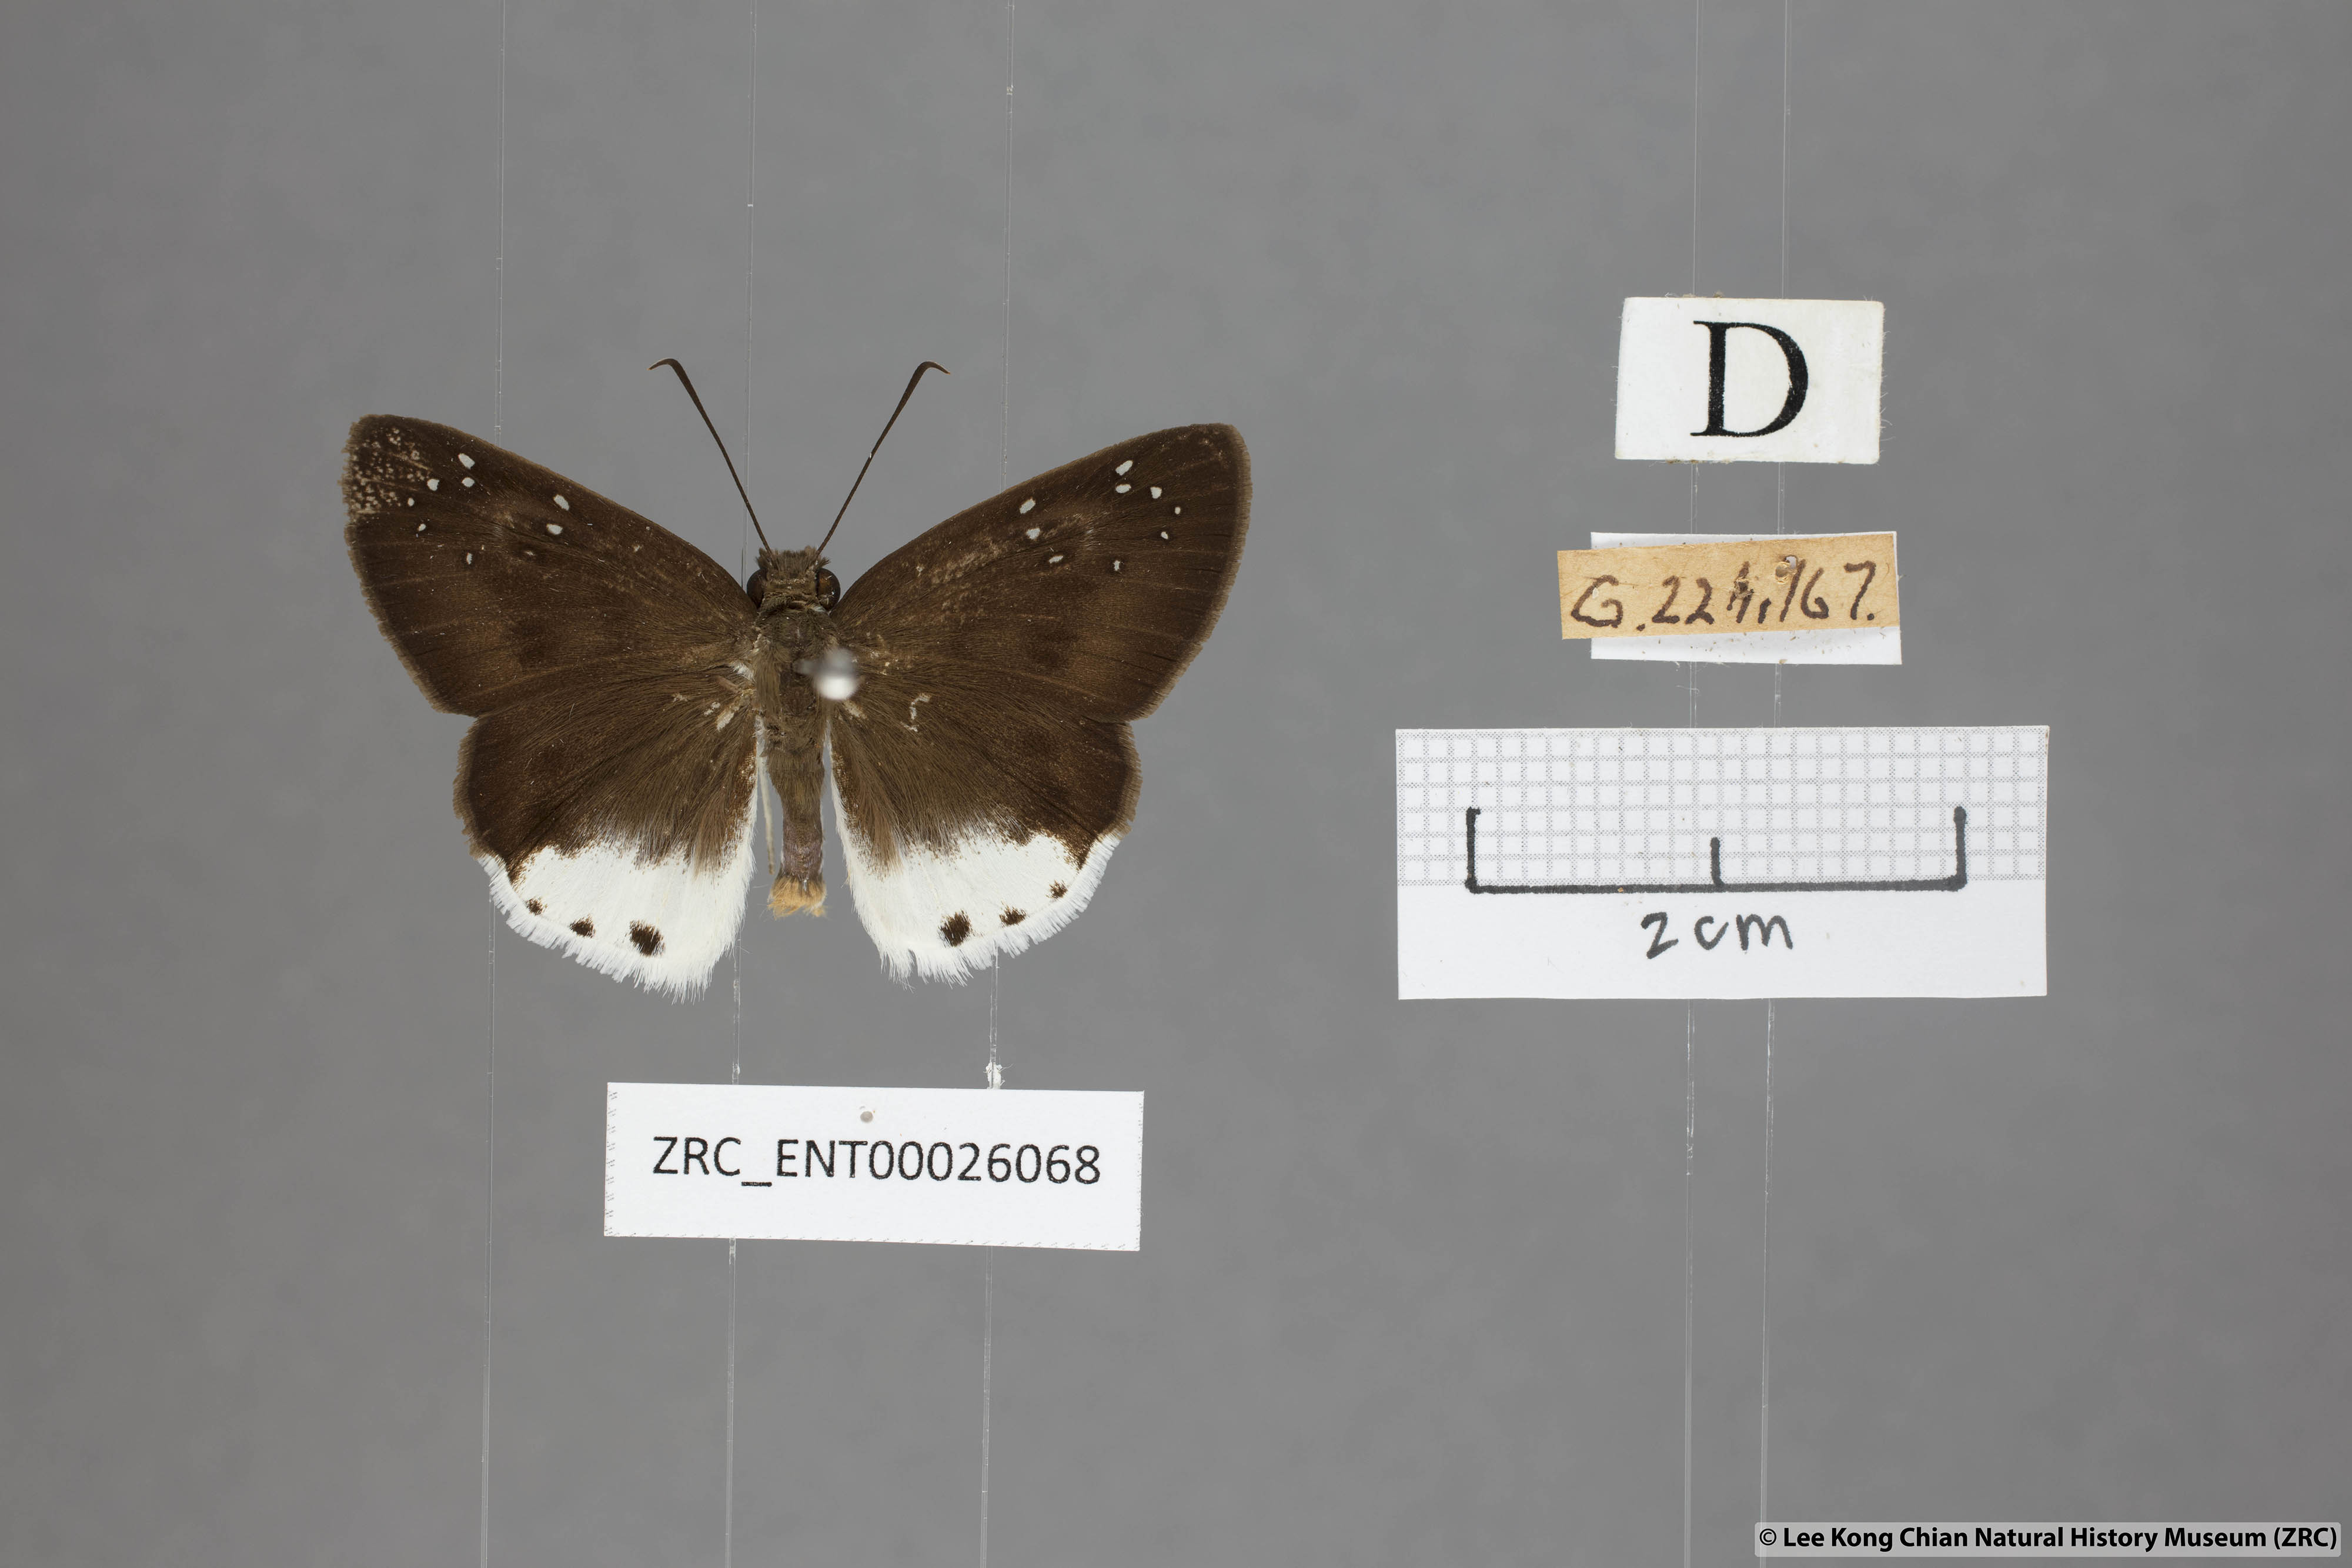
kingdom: Animalia
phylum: Arthropoda
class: Insecta
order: Lepidoptera
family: Hesperiidae
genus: Tagiades
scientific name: Tagiades waterstradti
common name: Waterstradt snow flat
